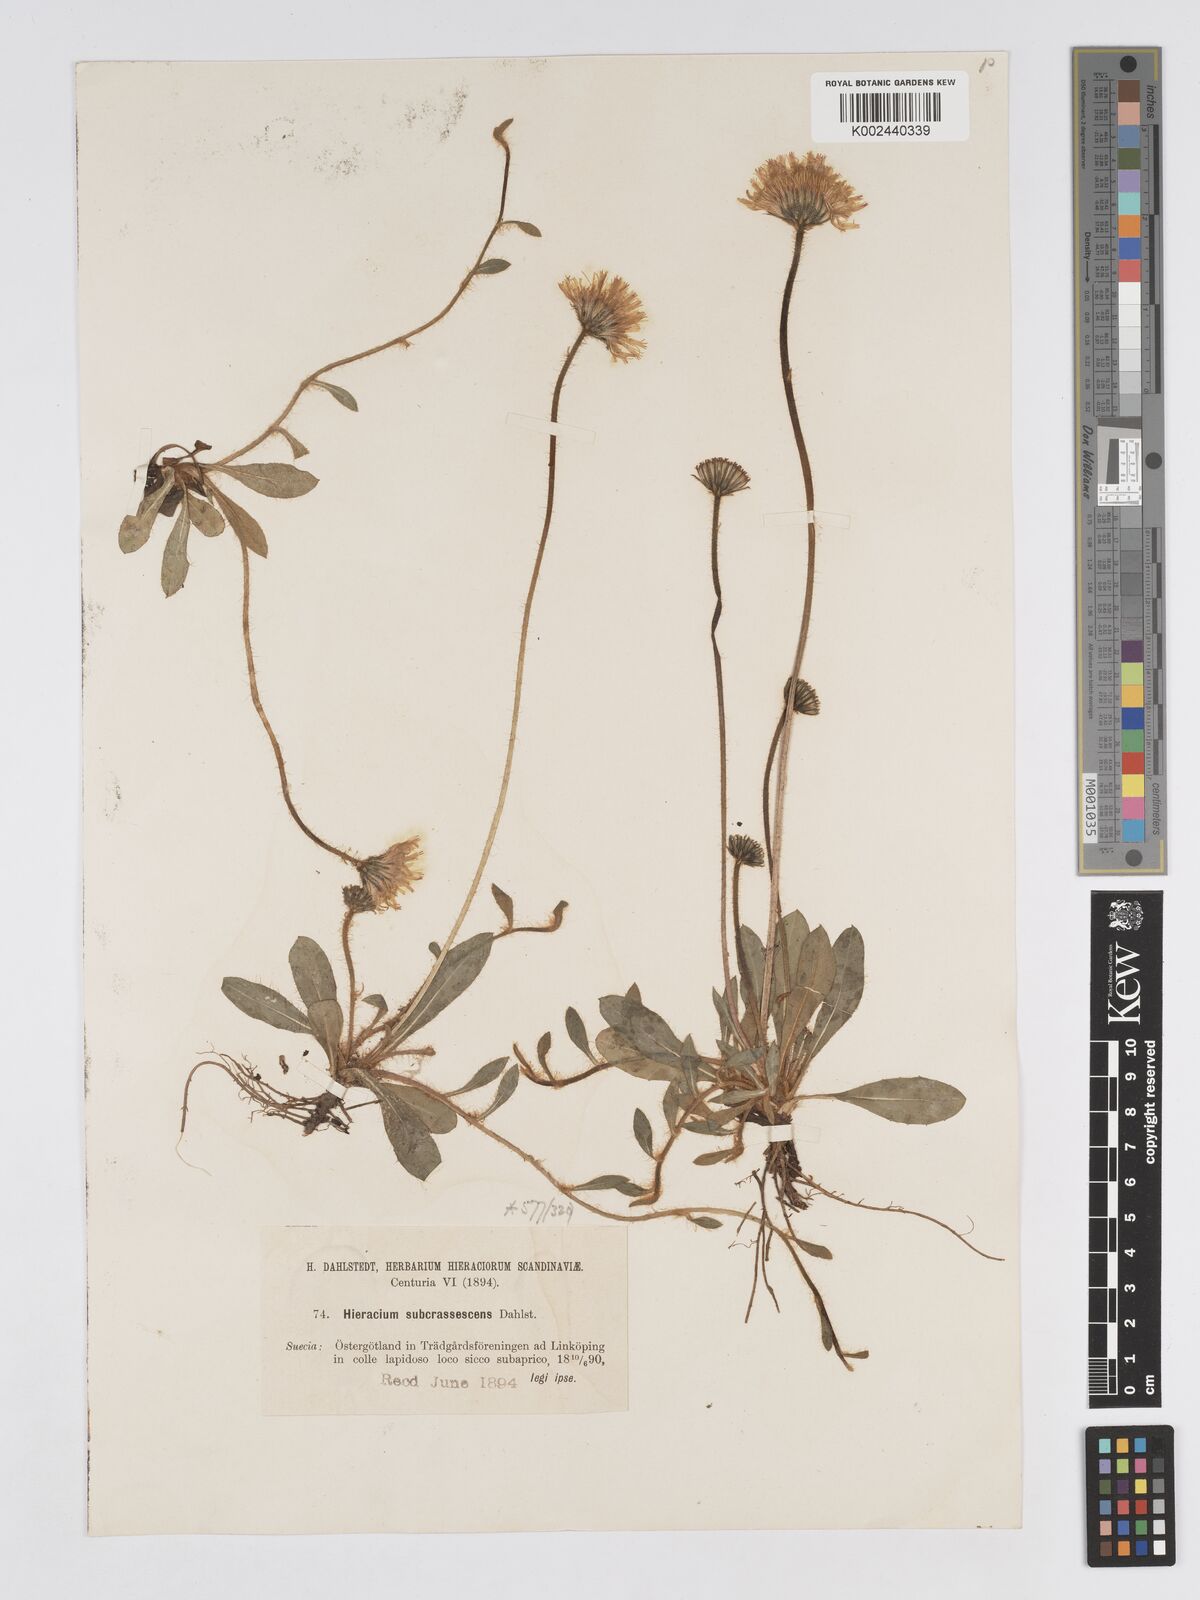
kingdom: Plantae
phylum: Tracheophyta
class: Magnoliopsida
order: Asterales
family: Asteraceae
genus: Pilosella
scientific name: Pilosella officinarum
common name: Mouse-ear hawkweed
